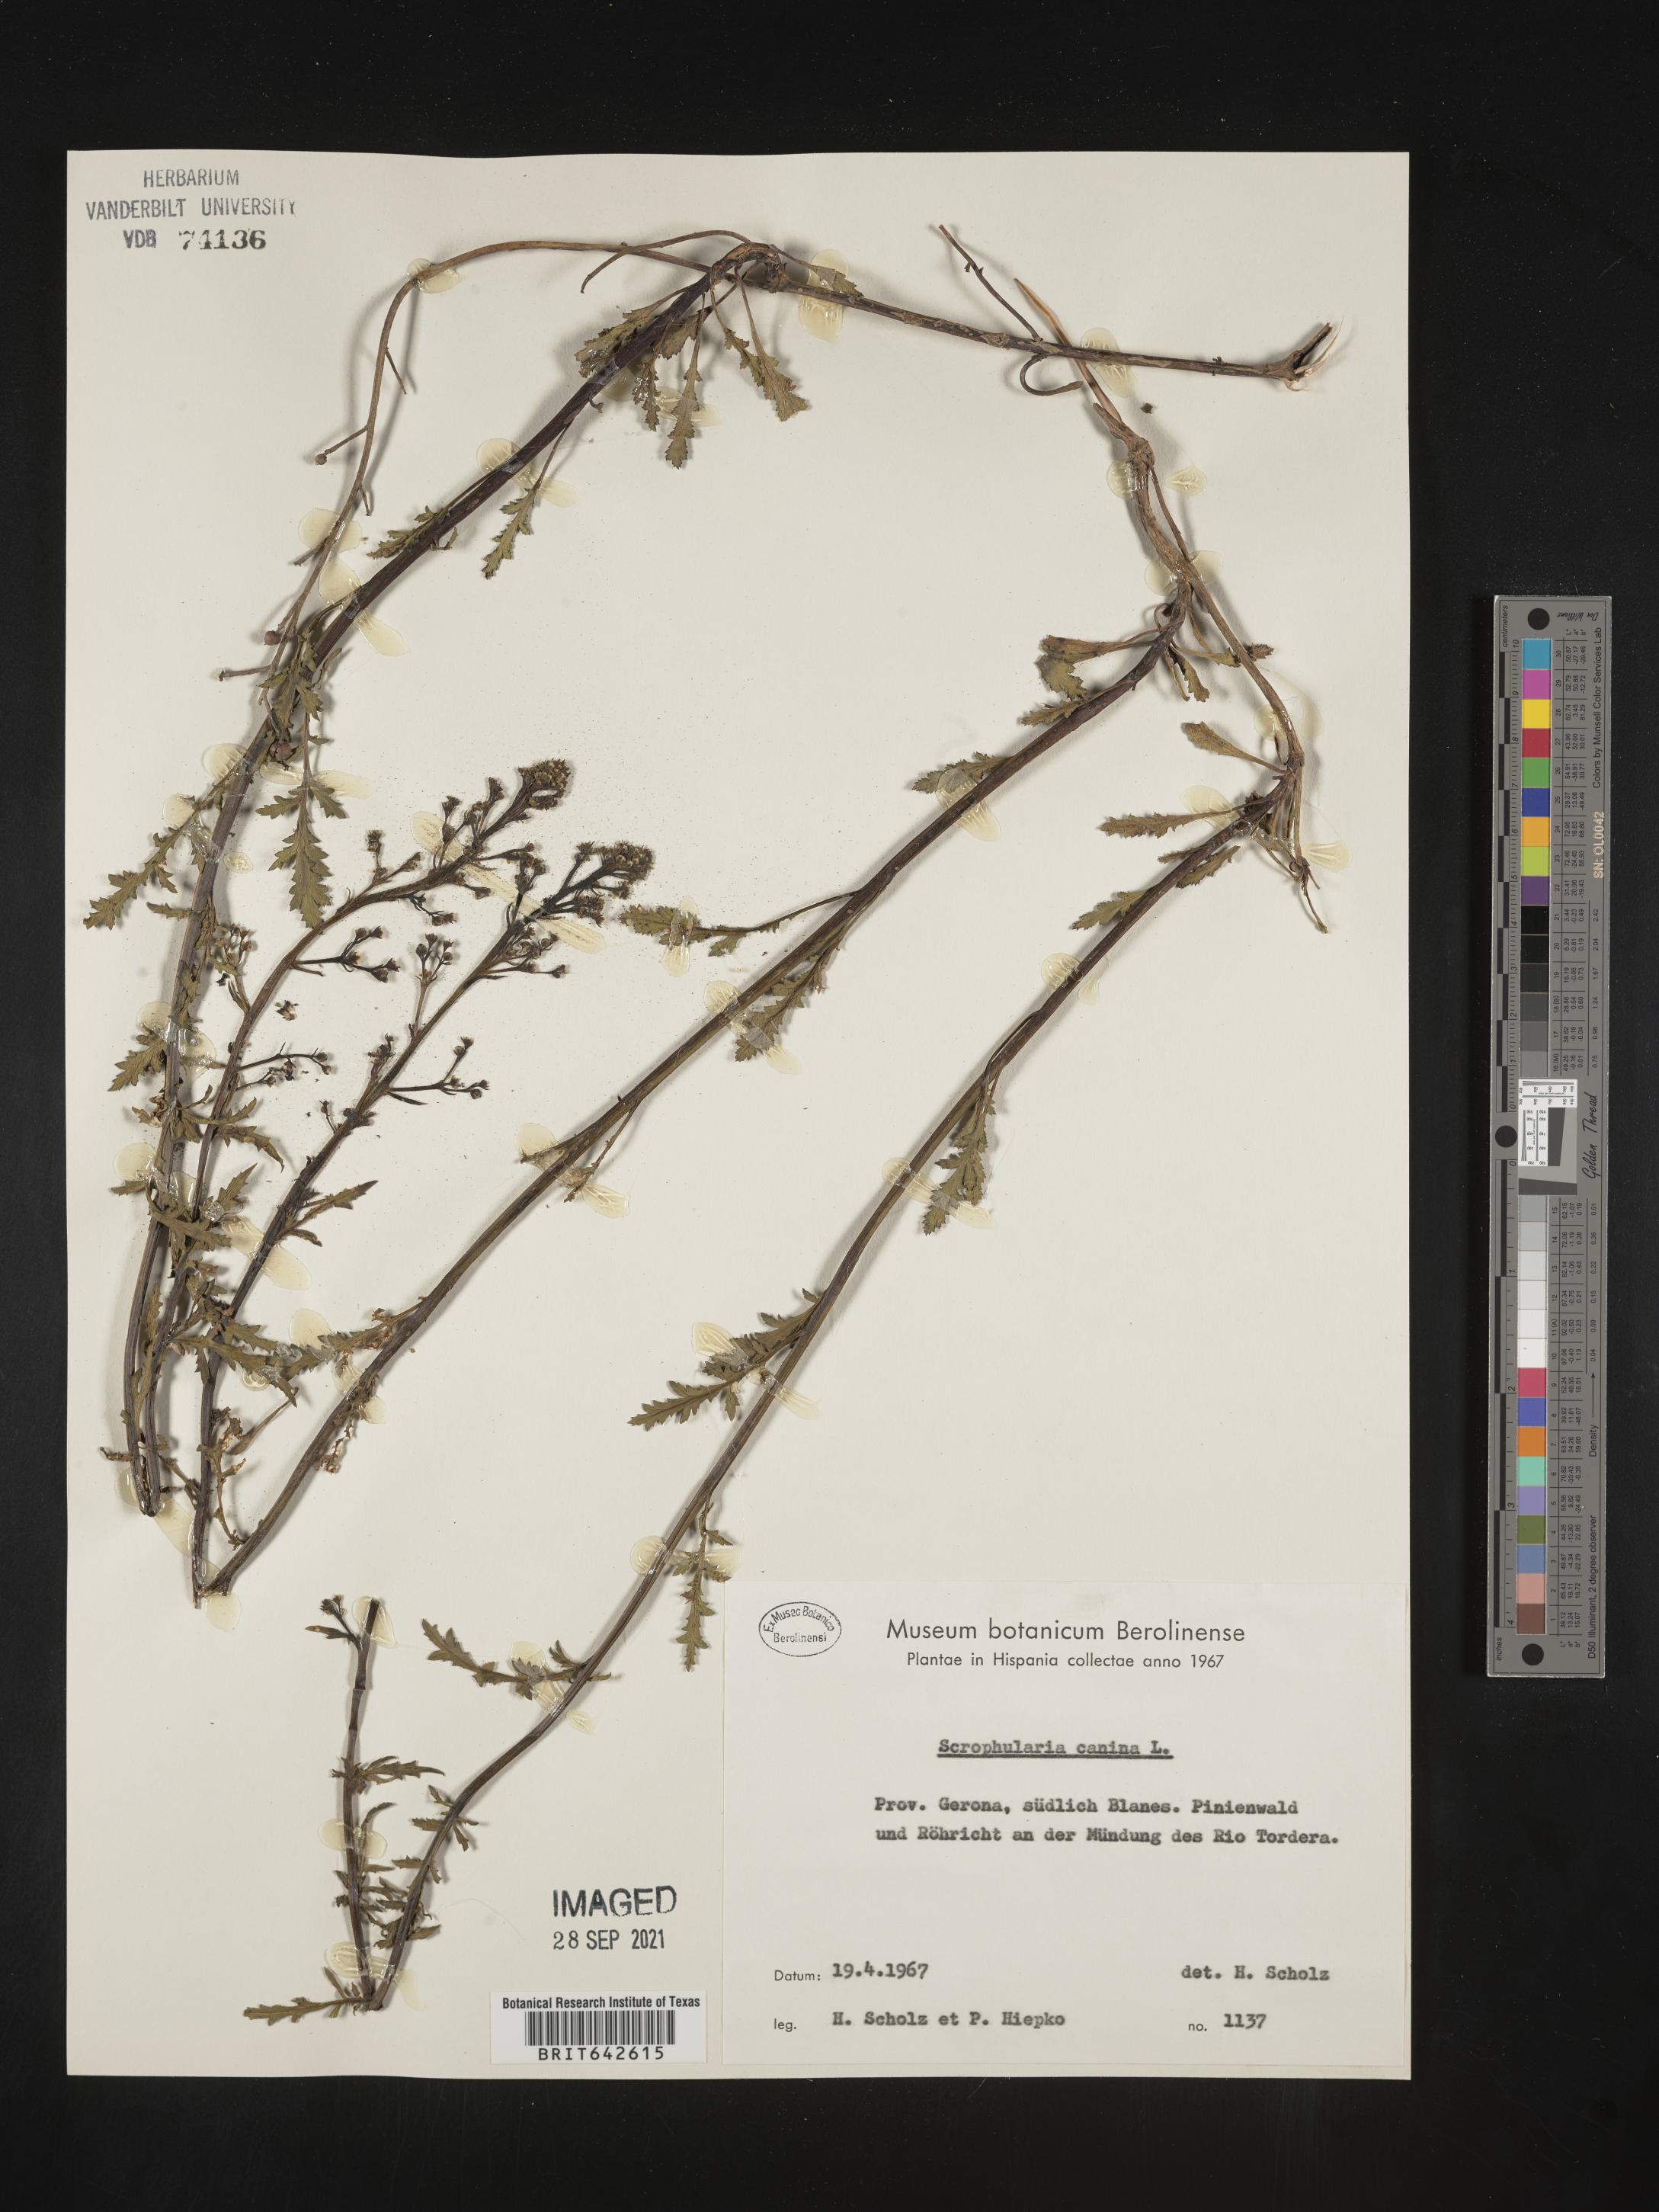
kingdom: Plantae
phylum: Tracheophyta
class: Magnoliopsida
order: Lamiales
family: Scrophulariaceae
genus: Scrophularia
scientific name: Scrophularia
